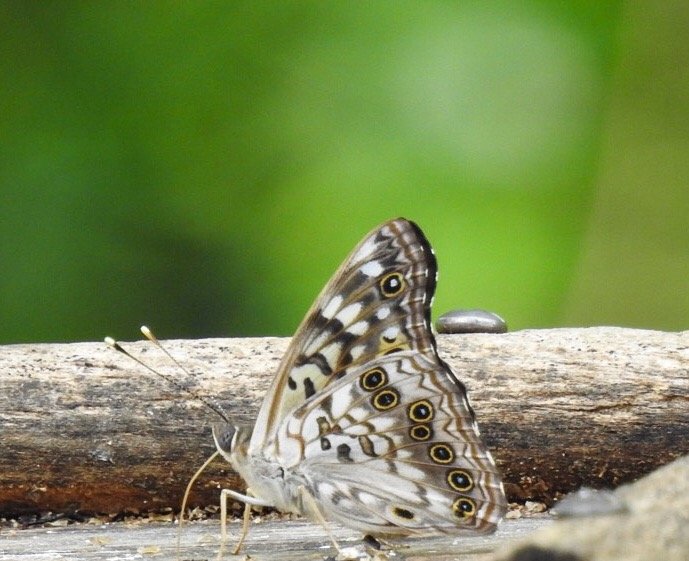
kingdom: Animalia
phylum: Arthropoda
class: Insecta
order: Lepidoptera
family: Nymphalidae
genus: Asterocampa
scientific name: Asterocampa celtis
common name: Hackberry Emperor
